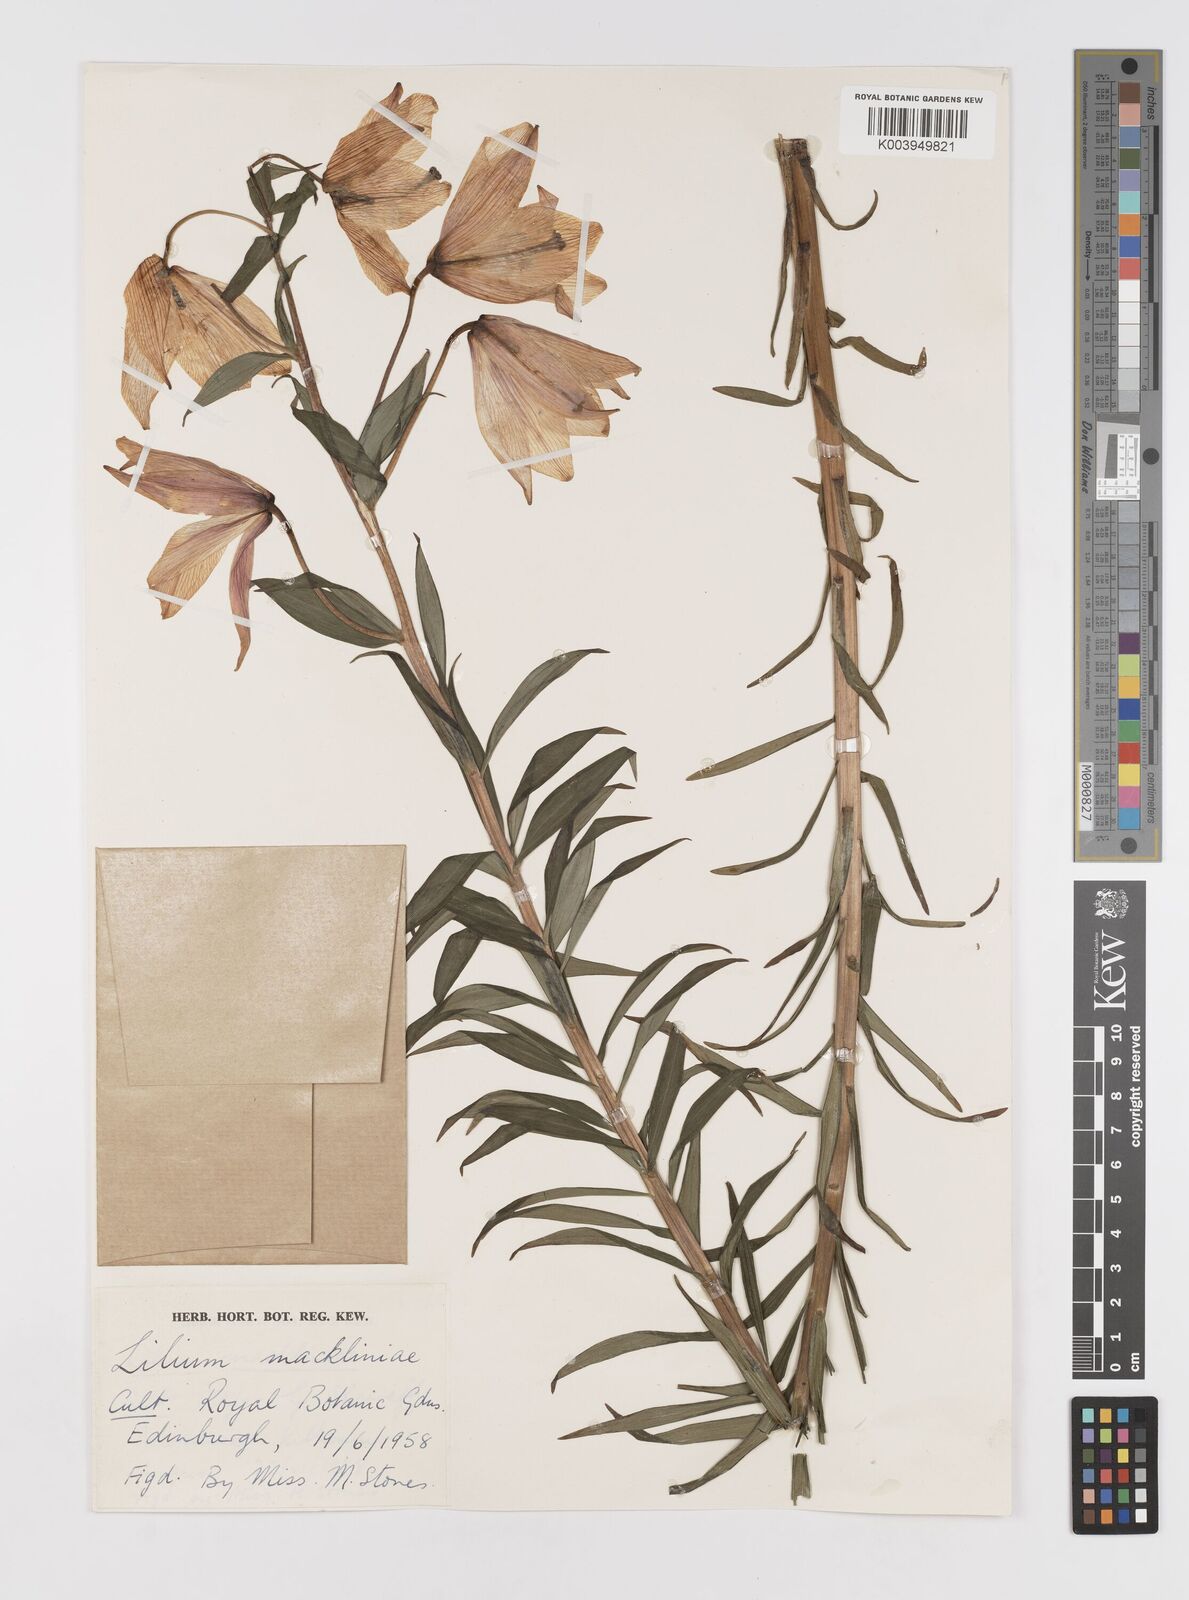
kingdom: Plantae
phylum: Tracheophyta
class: Liliopsida
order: Liliales
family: Liliaceae
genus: Lilium
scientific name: Lilium mackliniae
